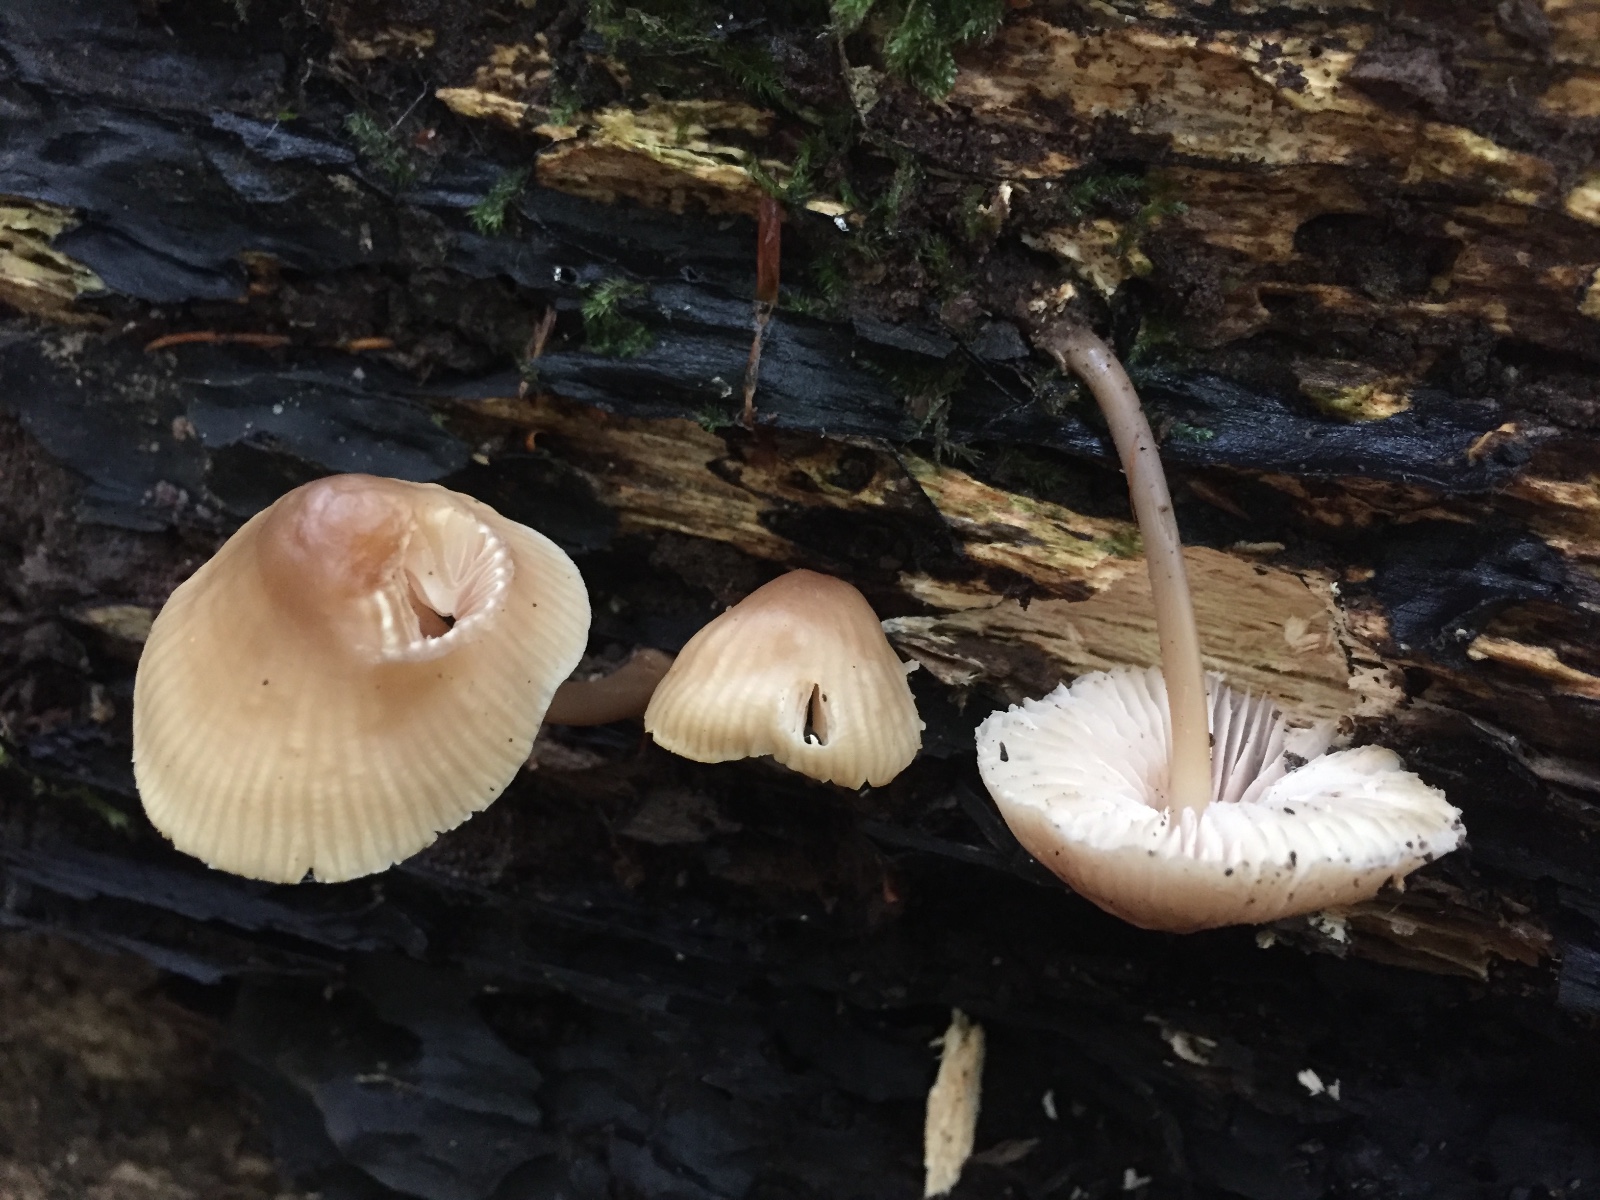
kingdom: Fungi
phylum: Basidiomycota
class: Agaricomycetes
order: Agaricales
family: Mycenaceae
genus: Mycena
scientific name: Mycena galericulata
